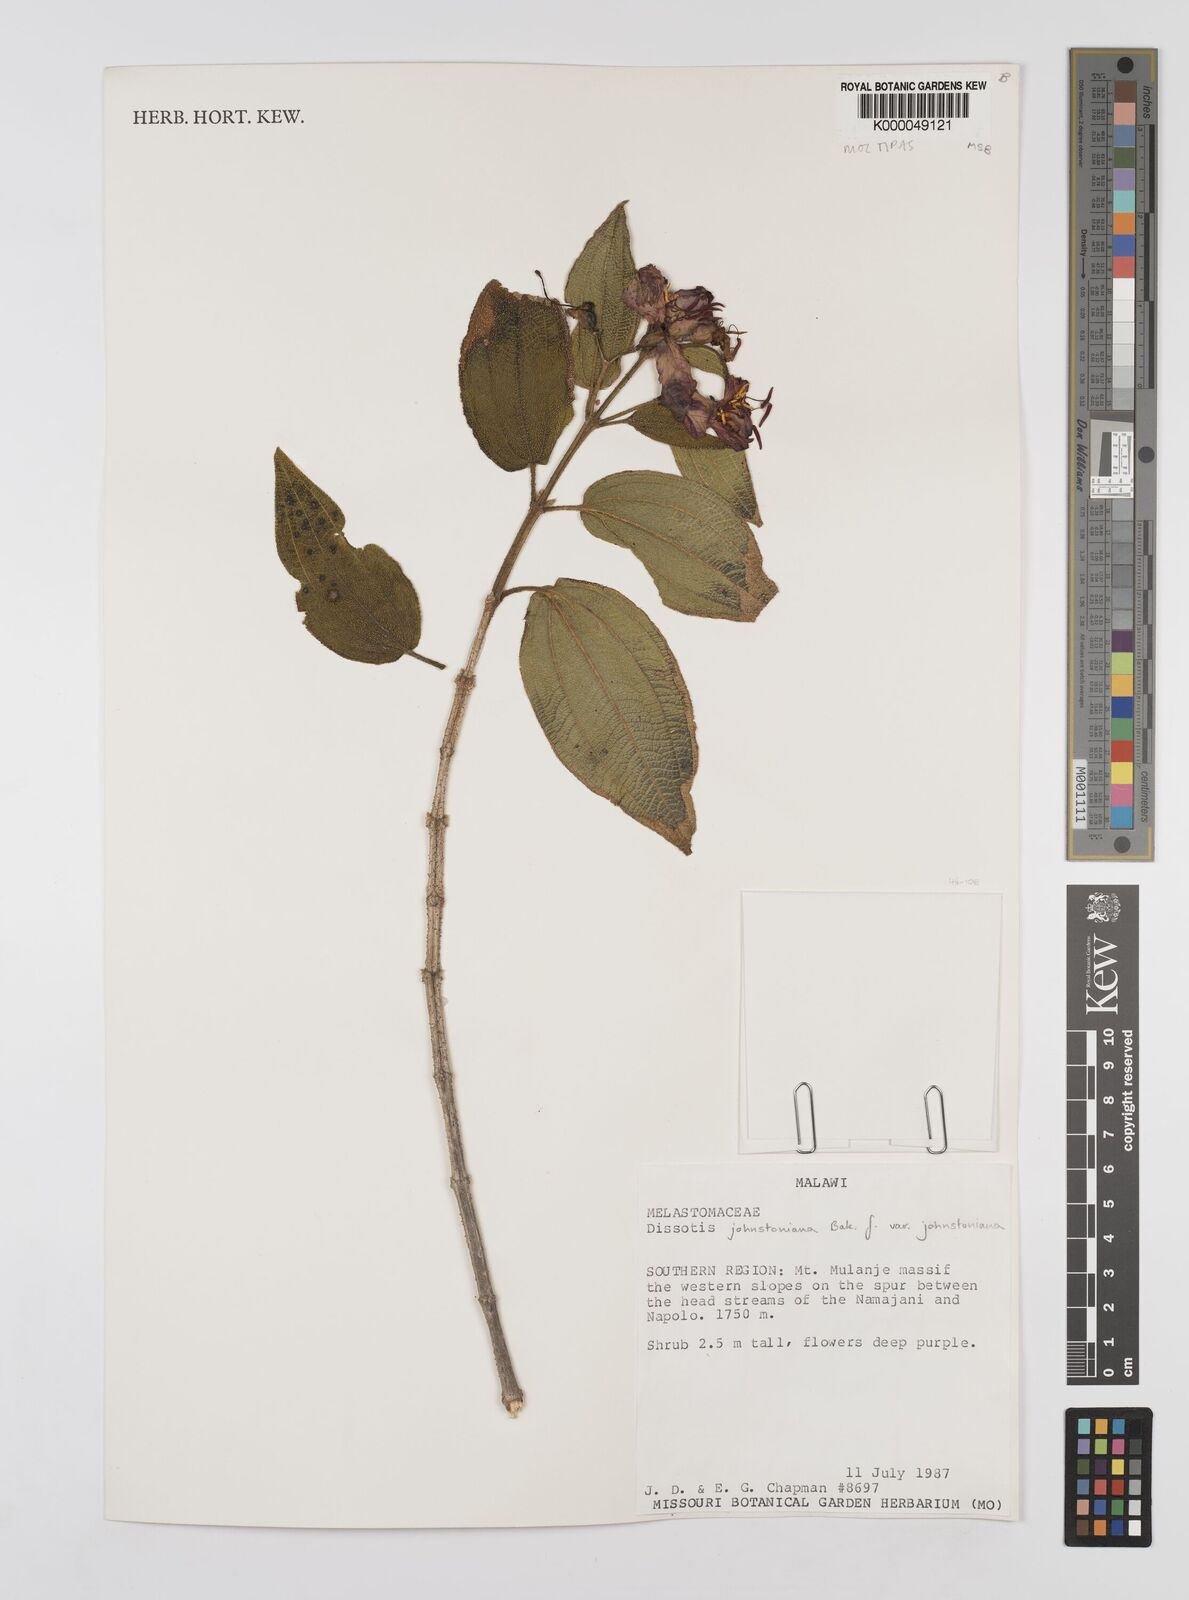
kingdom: Plantae
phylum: Tracheophyta
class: Magnoliopsida
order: Myrtales
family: Melastomataceae
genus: Dissotidendron
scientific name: Dissotidendron johnstonianum
